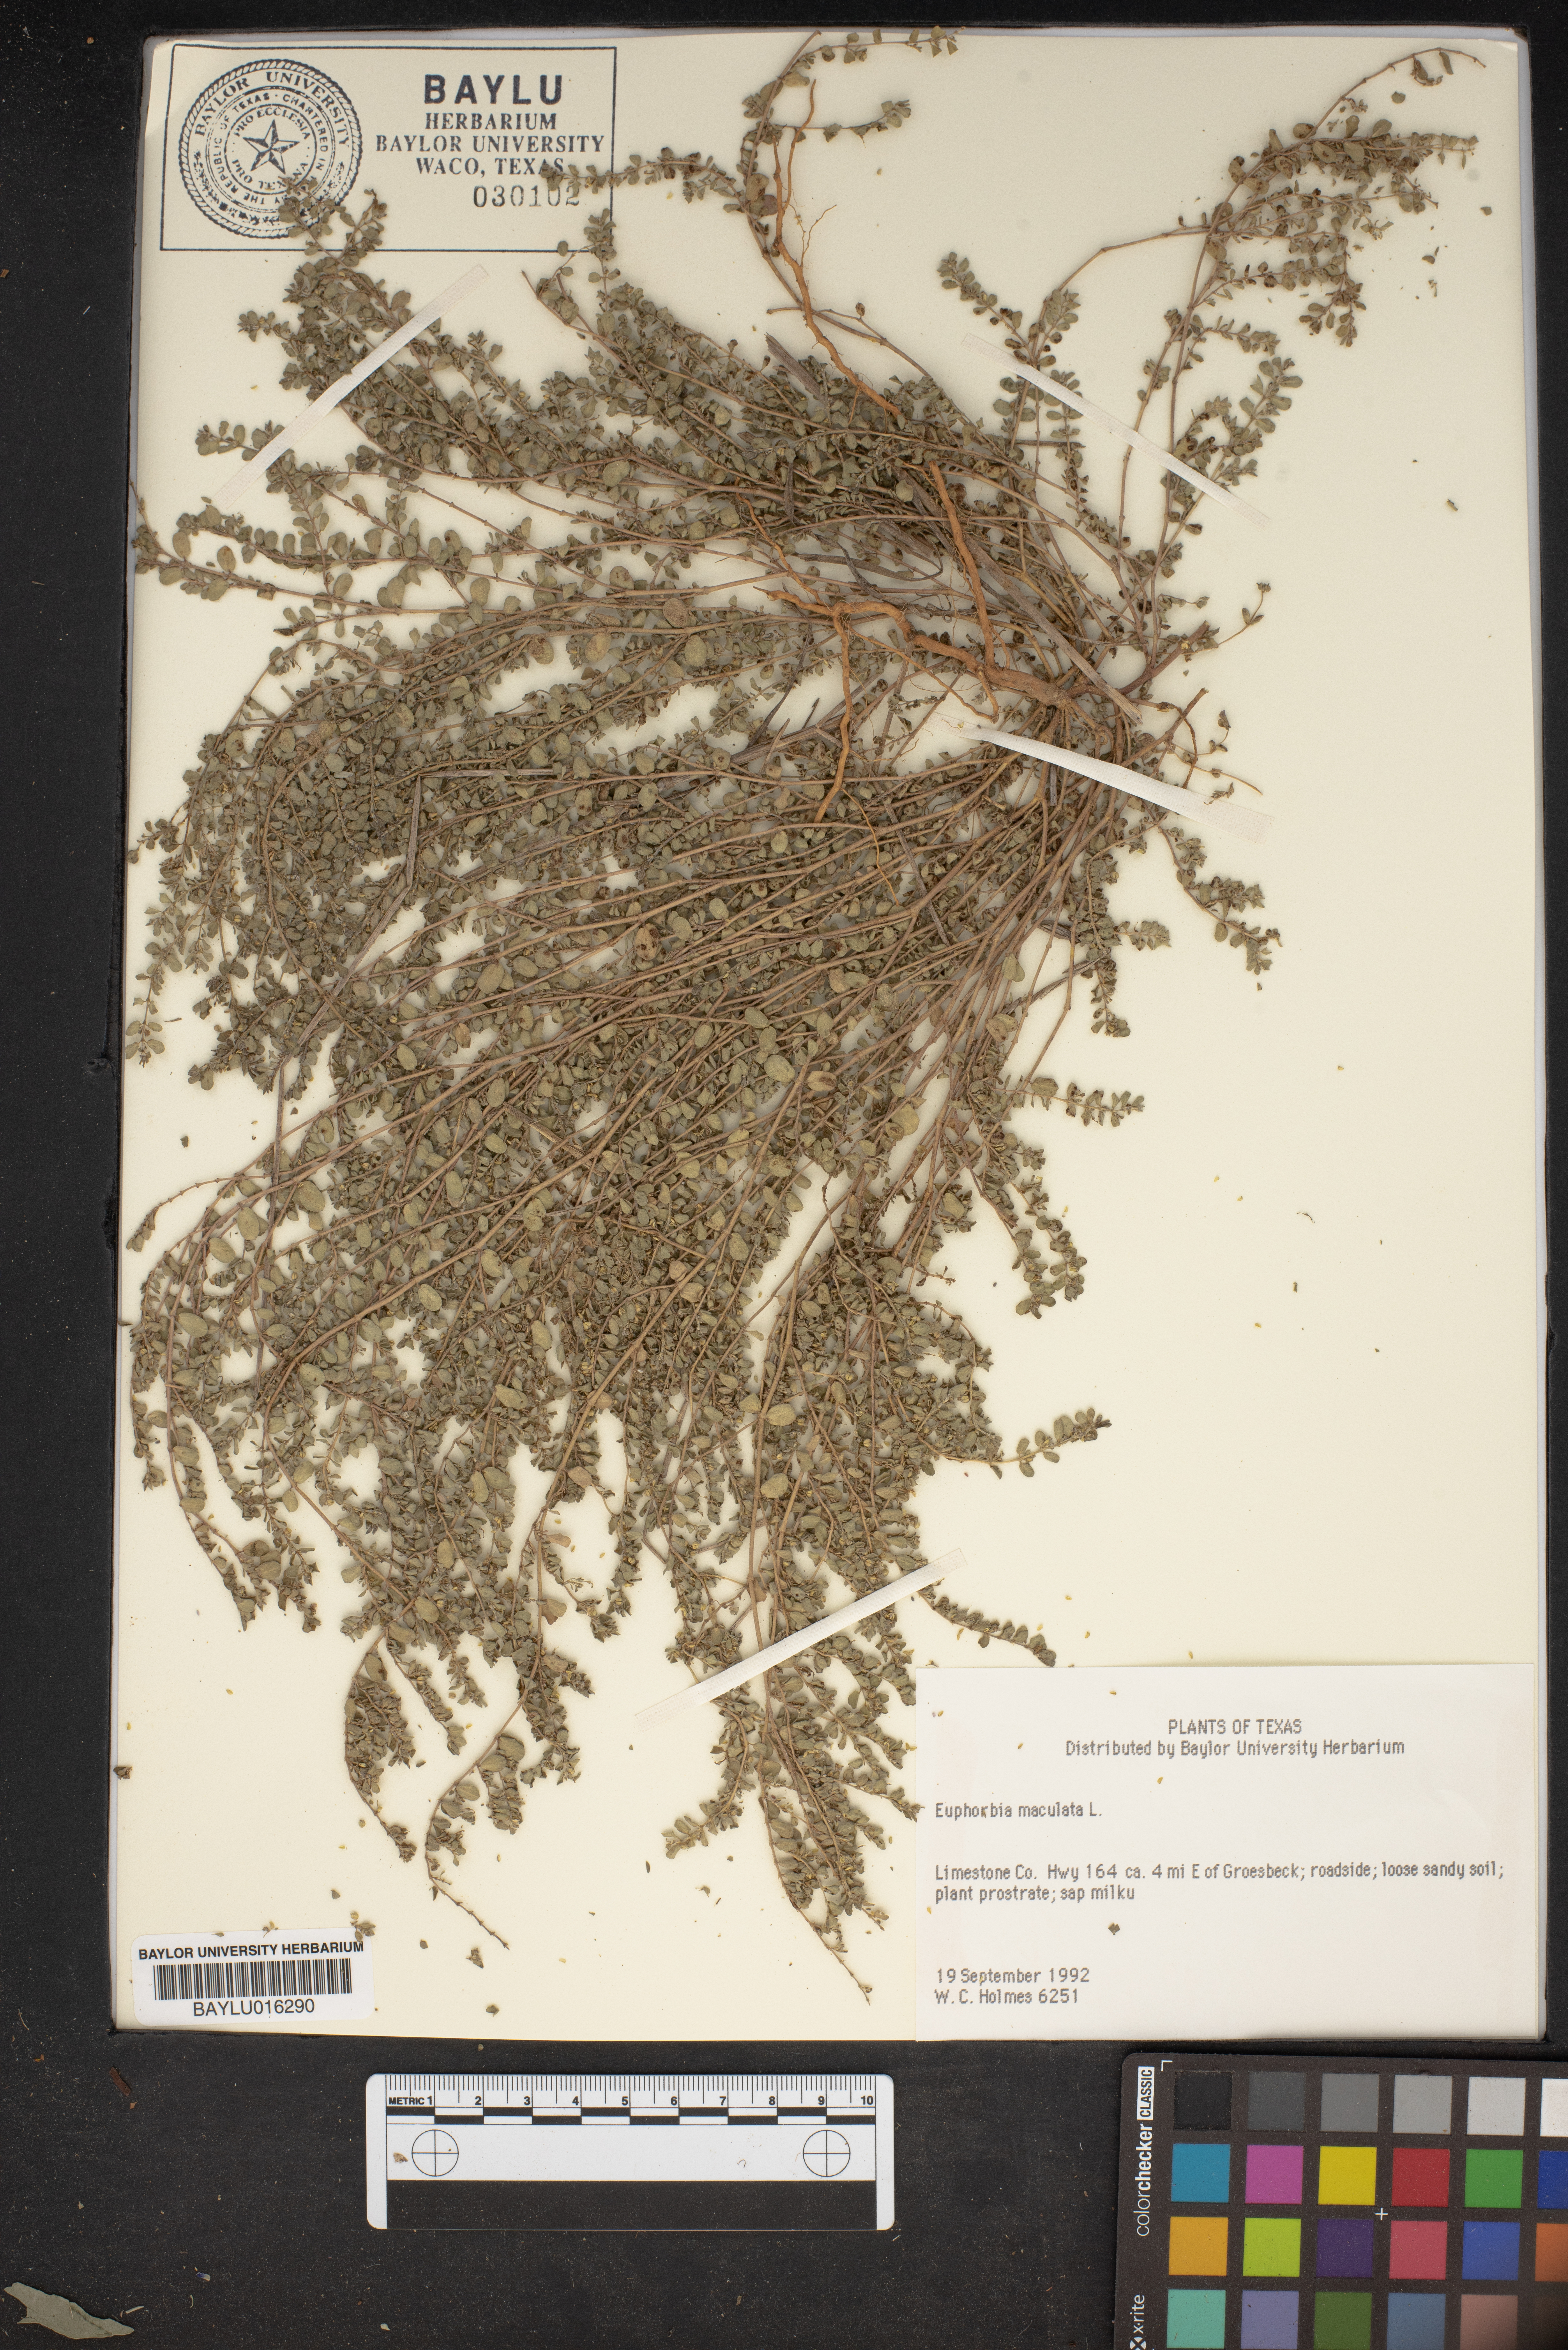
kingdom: Plantae
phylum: Tracheophyta
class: Magnoliopsida
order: Malpighiales
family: Euphorbiaceae
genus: Euphorbia
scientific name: Euphorbia maculata
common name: Spotted spurge
